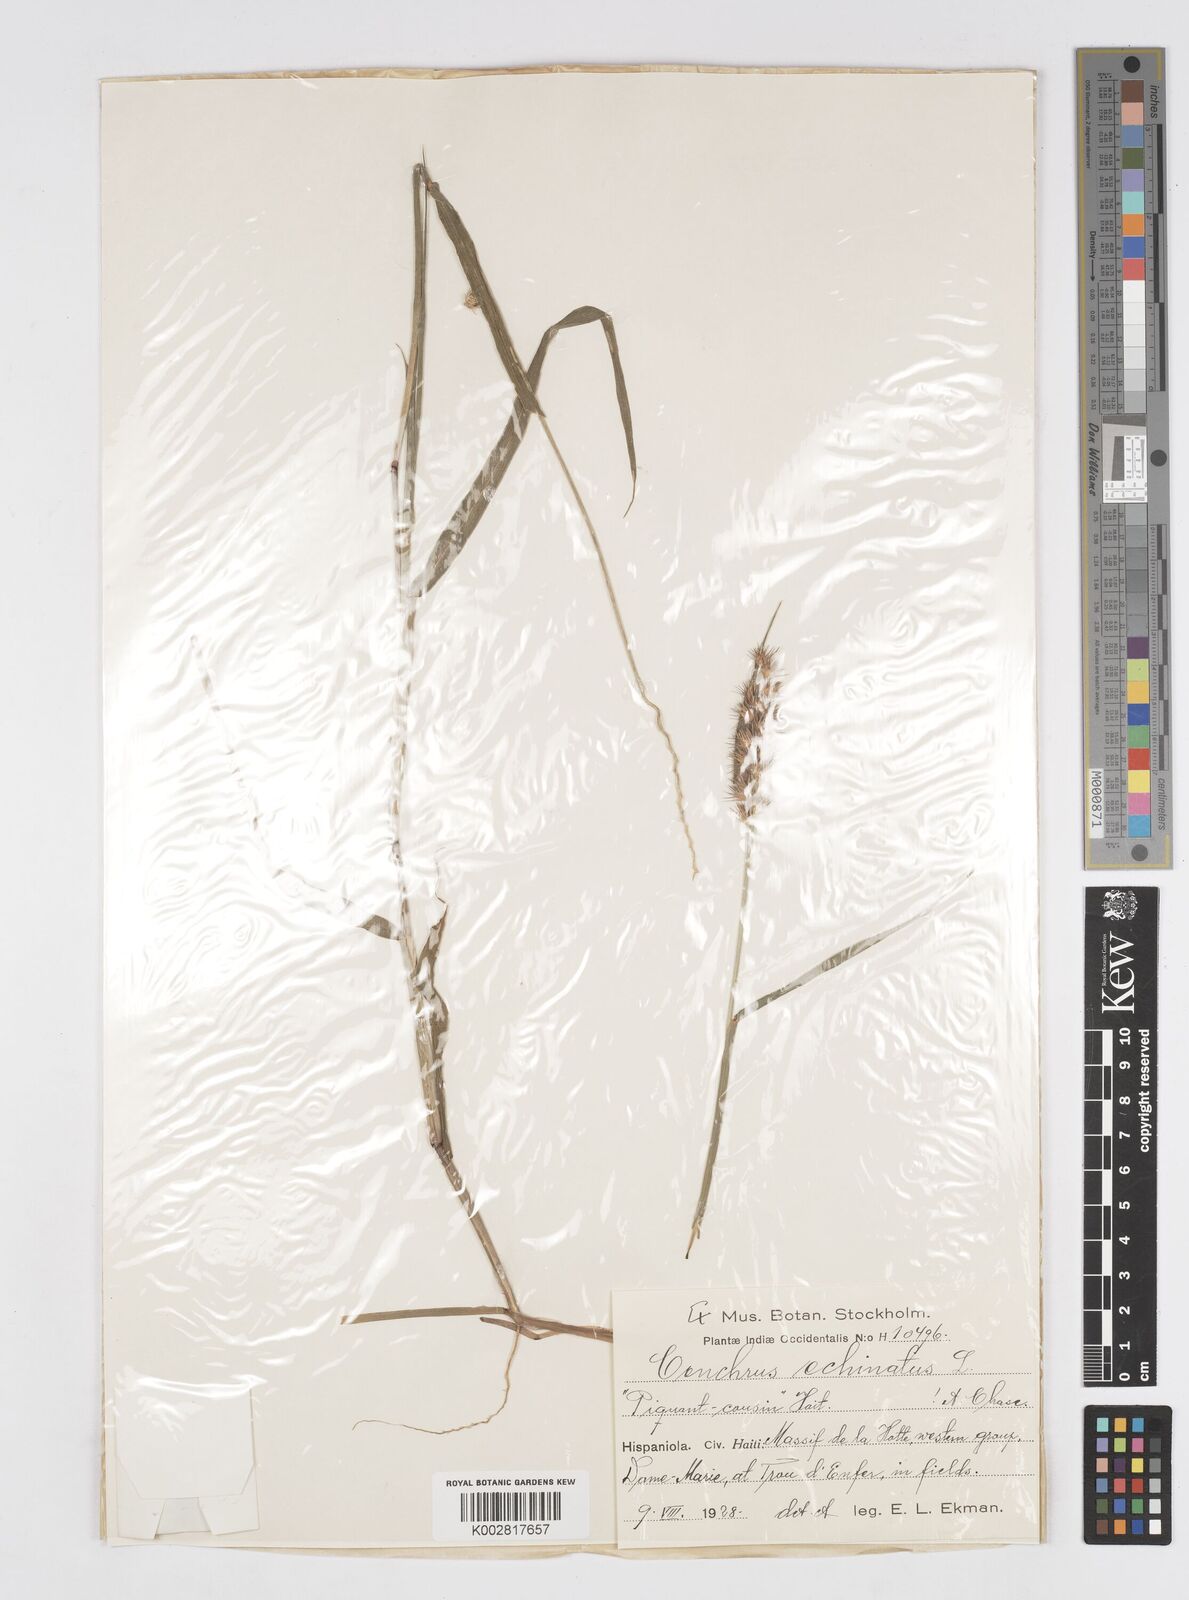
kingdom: Plantae
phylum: Tracheophyta
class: Liliopsida
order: Poales
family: Poaceae
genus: Cenchrus
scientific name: Cenchrus brownii
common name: Slim-bristle sandbur
